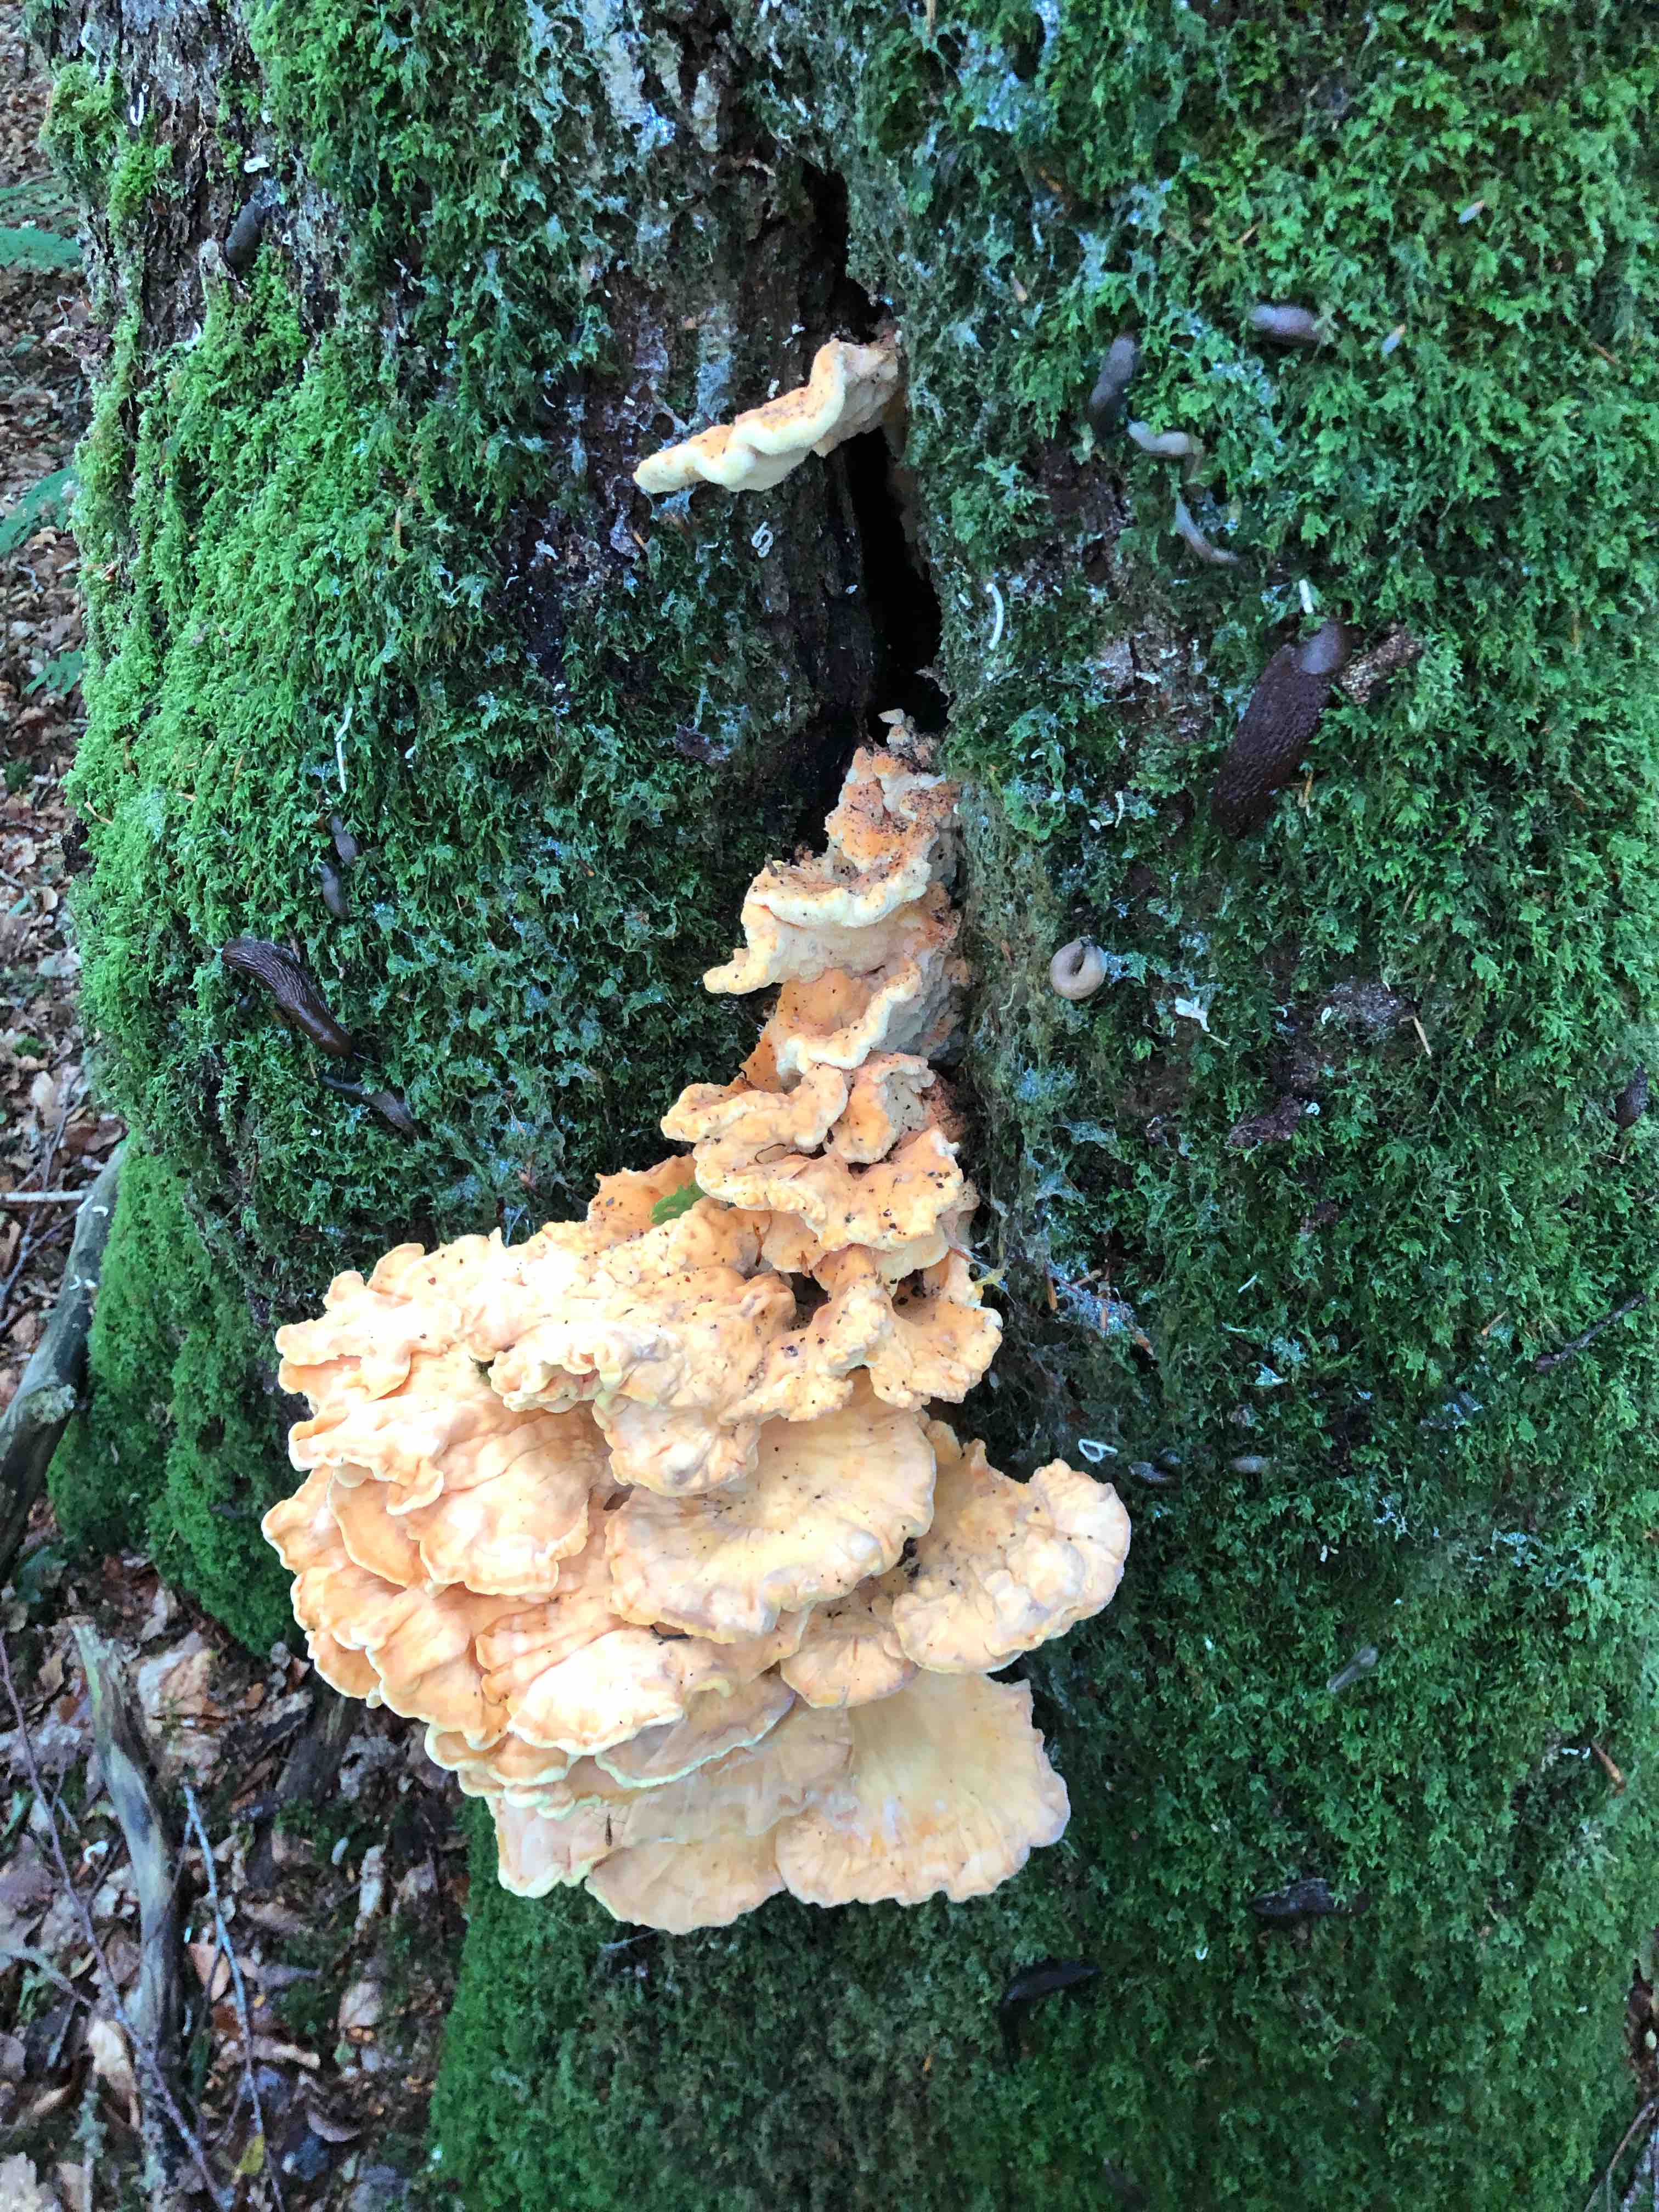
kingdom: Fungi
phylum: Basidiomycota
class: Agaricomycetes
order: Polyporales
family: Laetiporaceae
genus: Laetiporus
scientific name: Laetiporus sulphureus
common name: svovlporesvamp
